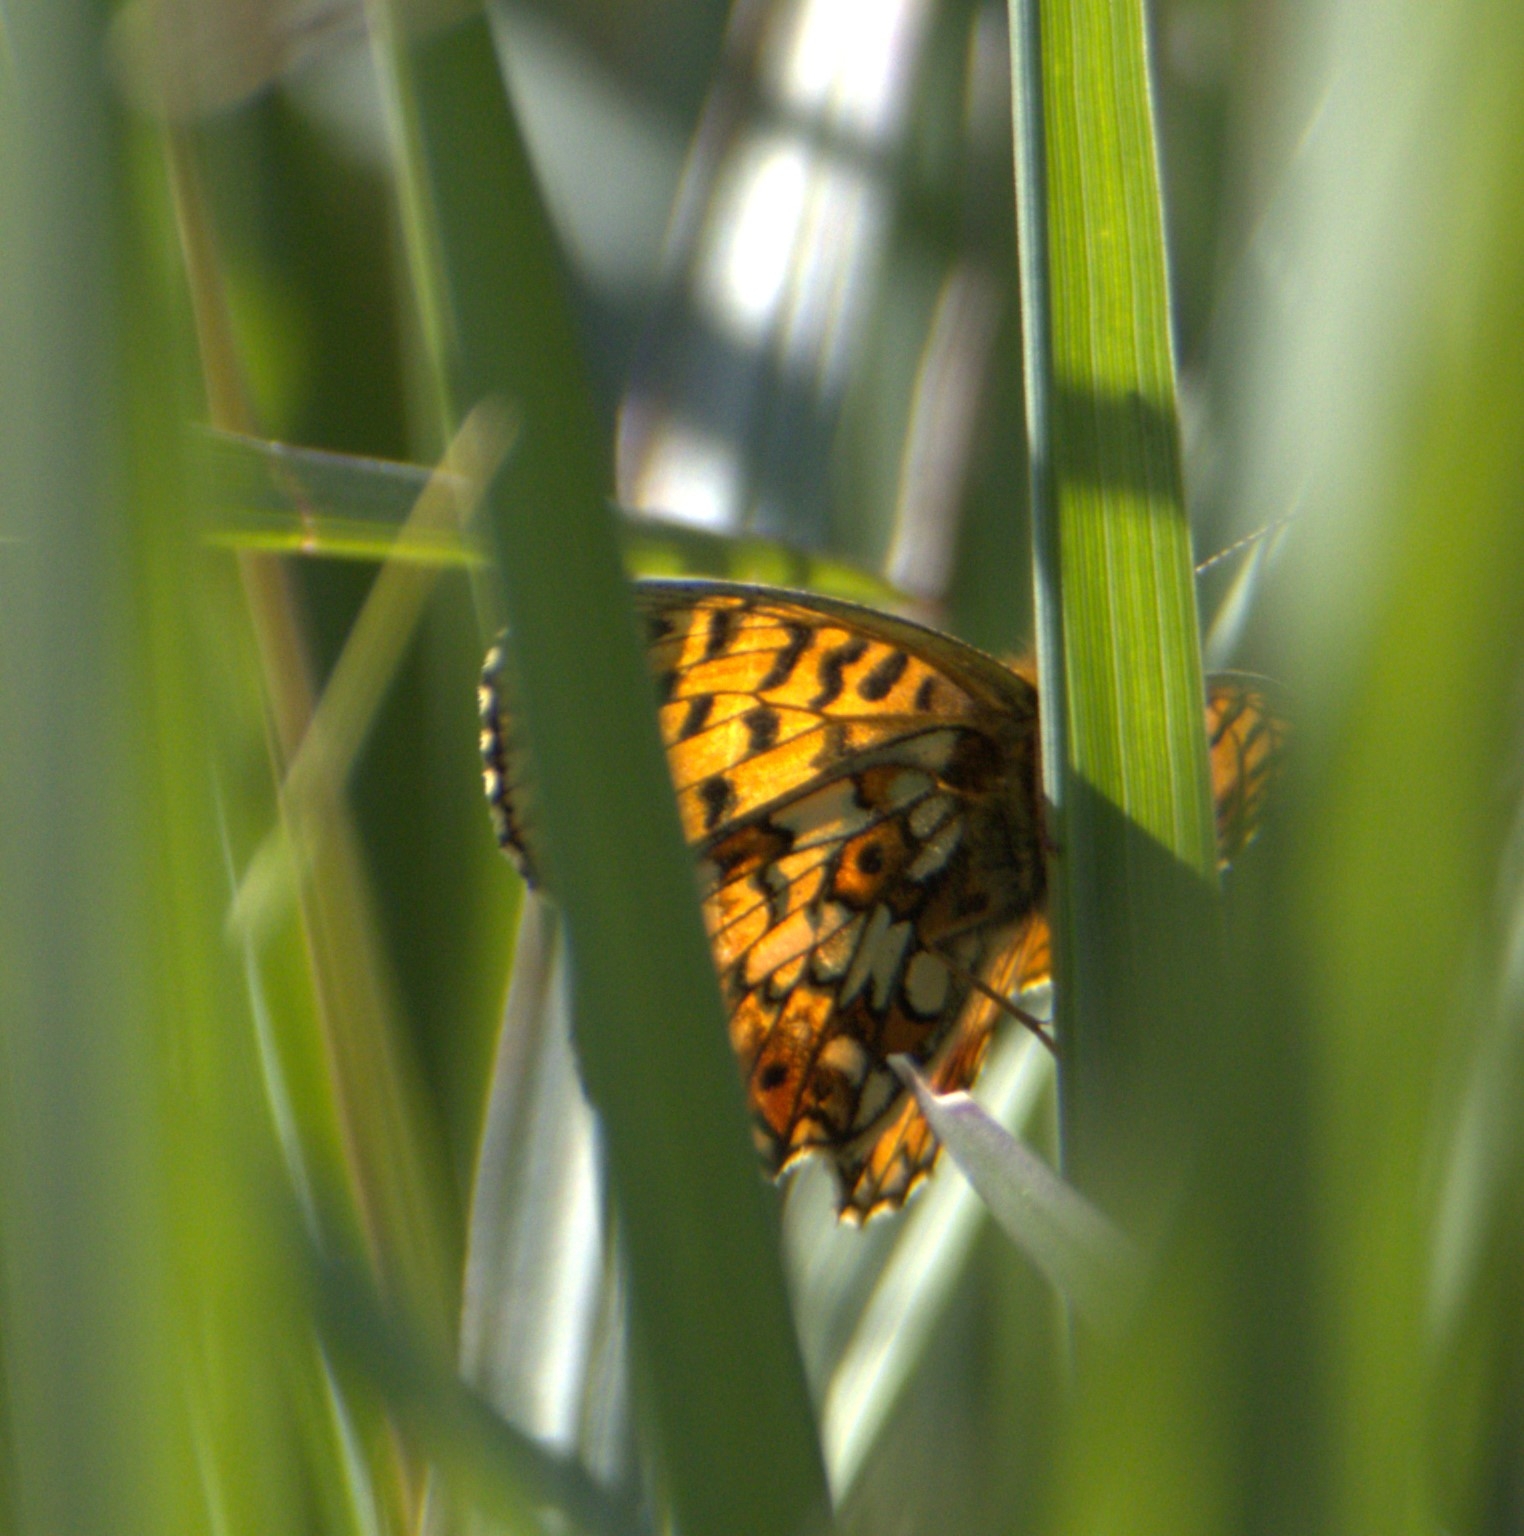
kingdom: Animalia
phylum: Arthropoda
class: Insecta
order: Lepidoptera
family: Nymphalidae
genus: Boloria
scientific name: Boloria selene
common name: Brunlig perlemorsommerfugl
